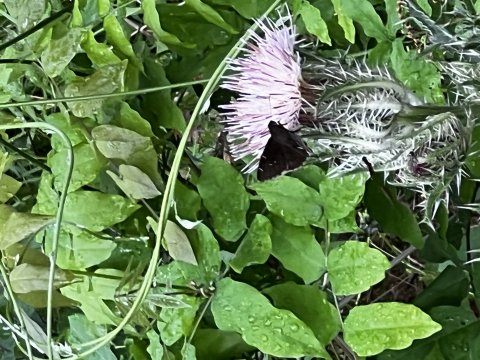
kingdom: Animalia
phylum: Arthropoda
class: Insecta
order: Lepidoptera
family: Hesperiidae
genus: Autochton
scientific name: Autochton
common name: Northern Cloudywing
